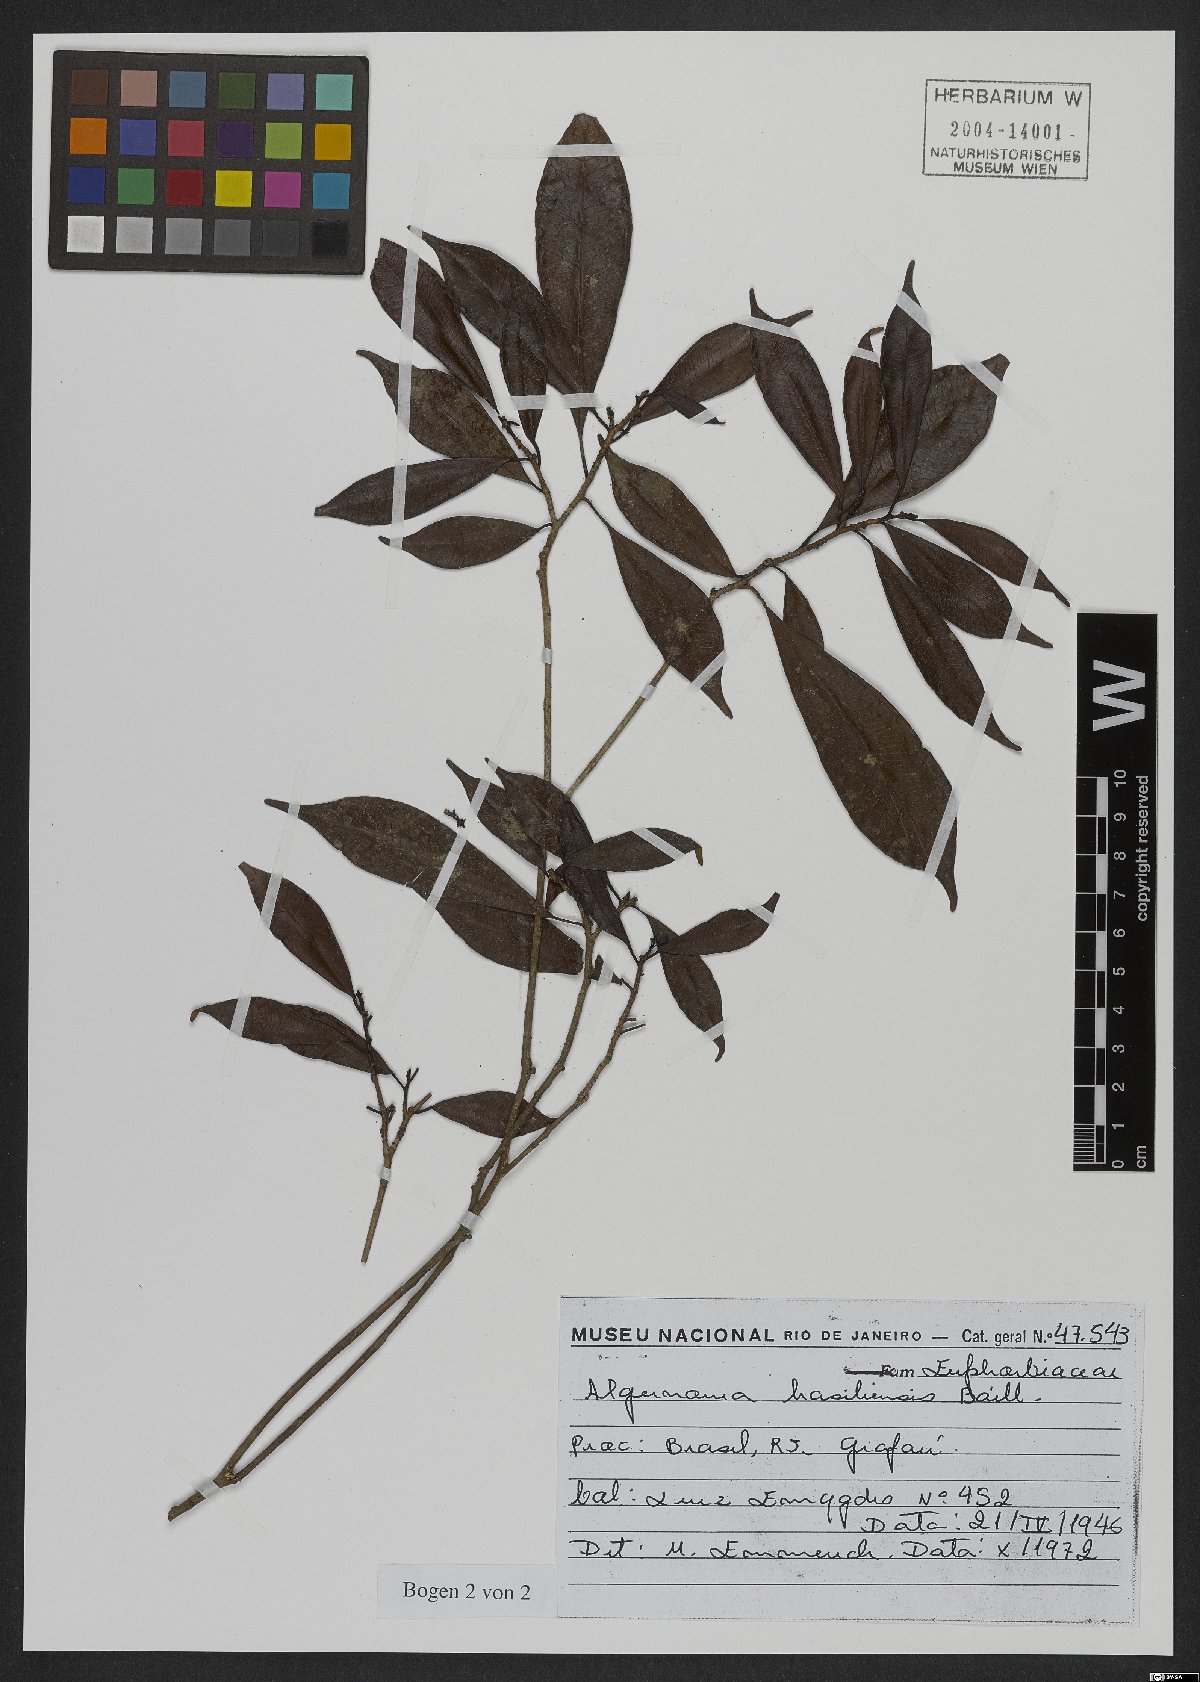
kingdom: Plantae
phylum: Tracheophyta
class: Magnoliopsida
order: Malpighiales
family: Euphorbiaceae
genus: Algernonia
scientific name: Algernonia brasiliensis
